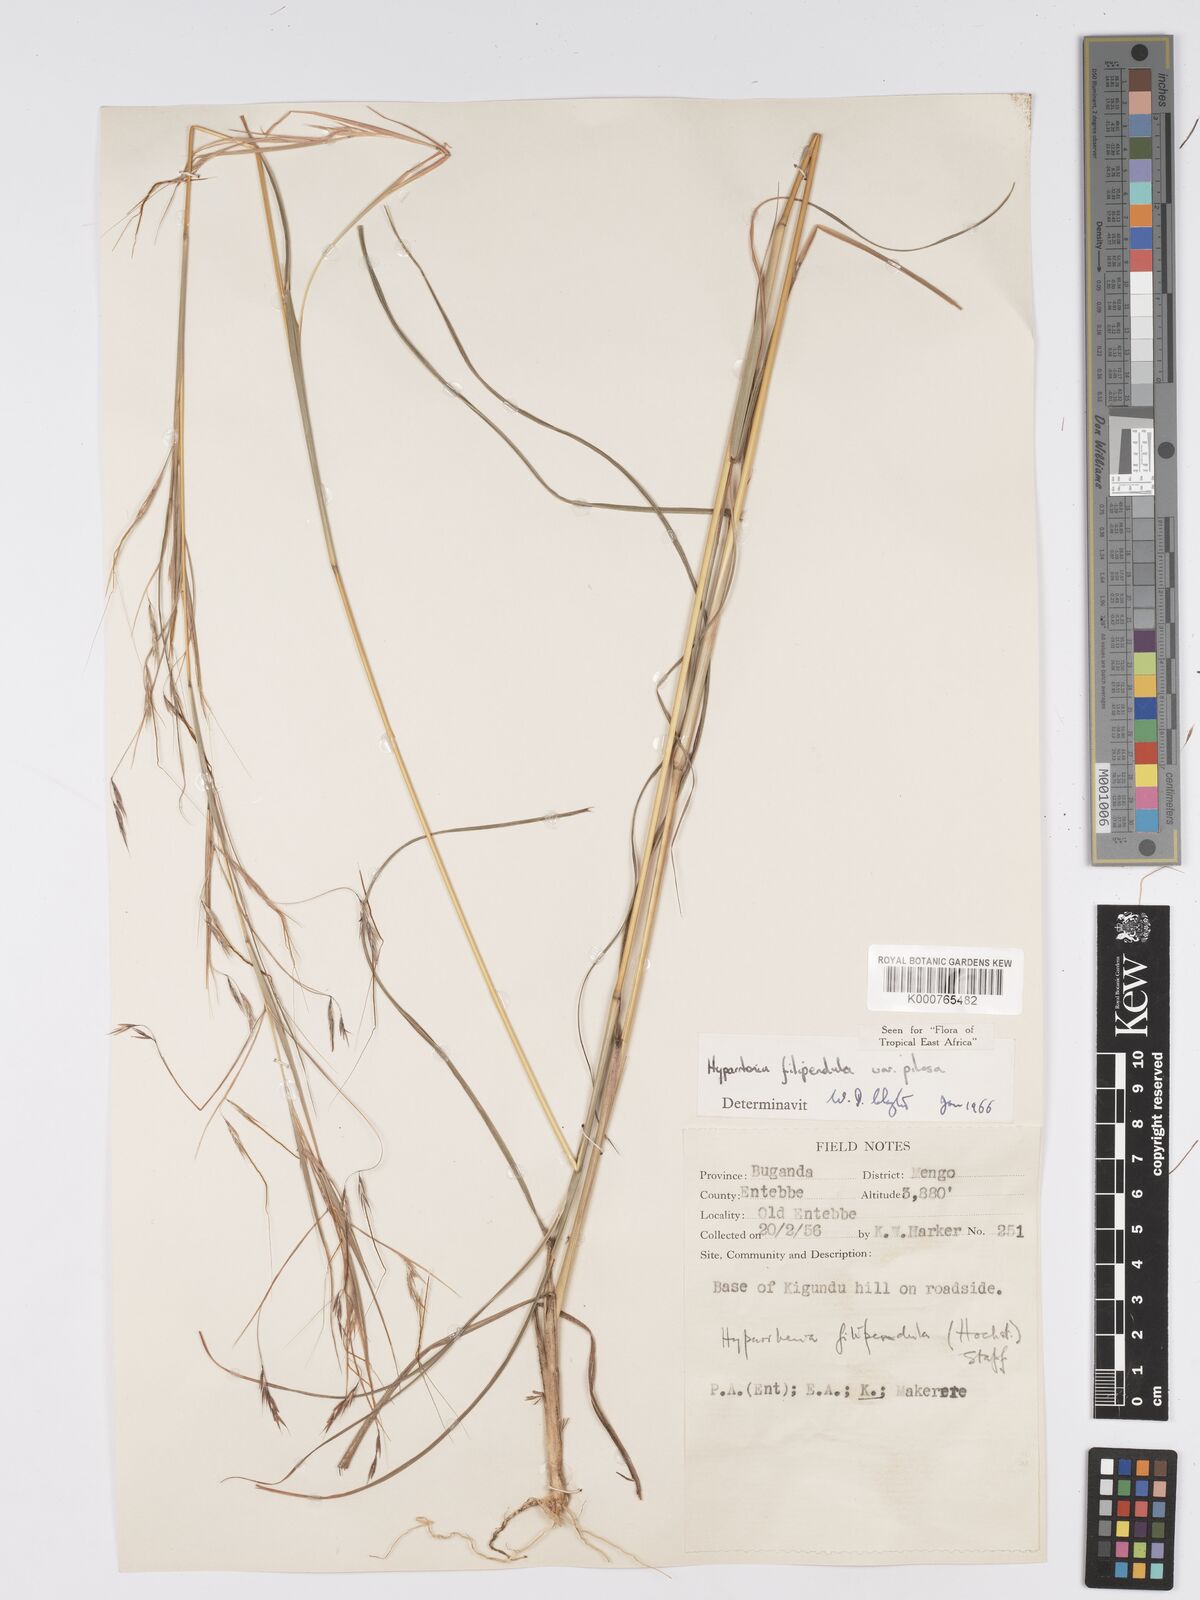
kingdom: Plantae
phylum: Tracheophyta
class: Liliopsida
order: Poales
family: Poaceae
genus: Hyparrhenia
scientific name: Hyparrhenia filipendula
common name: Tambookie grass
